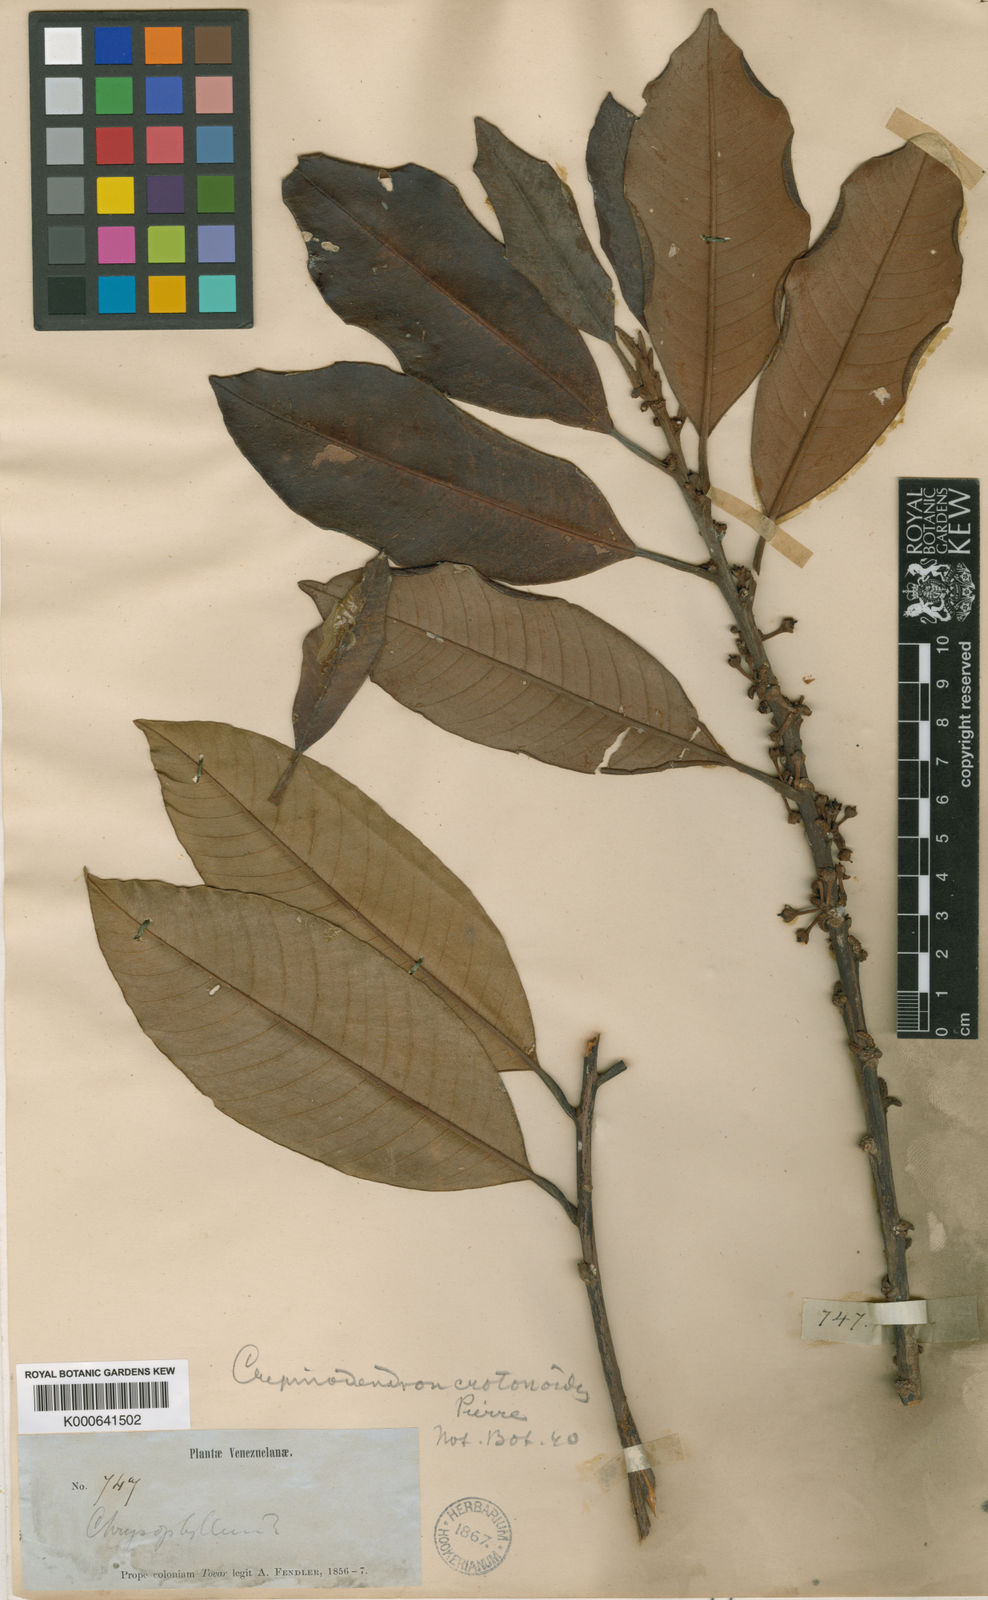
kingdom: Plantae
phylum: Tracheophyta
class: Magnoliopsida
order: Ericales
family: Sapotaceae
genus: Micropholis
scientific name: Micropholis crotonoides
